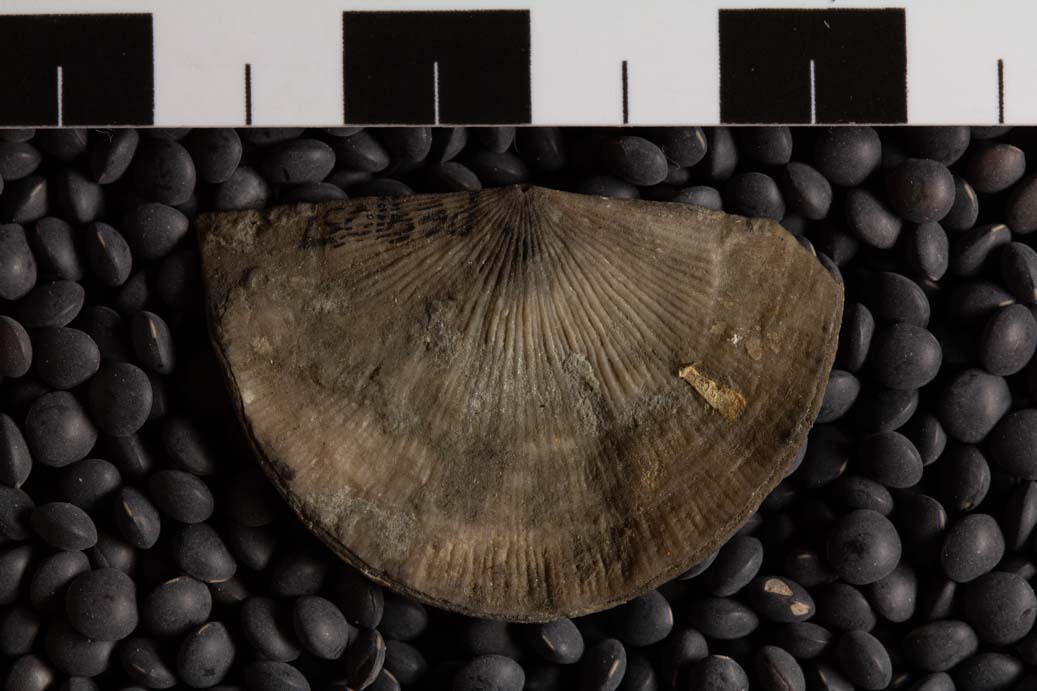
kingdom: Animalia
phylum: Brachiopoda
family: Streptorhynchidae
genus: Streptorhynchus
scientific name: Streptorhynchus
